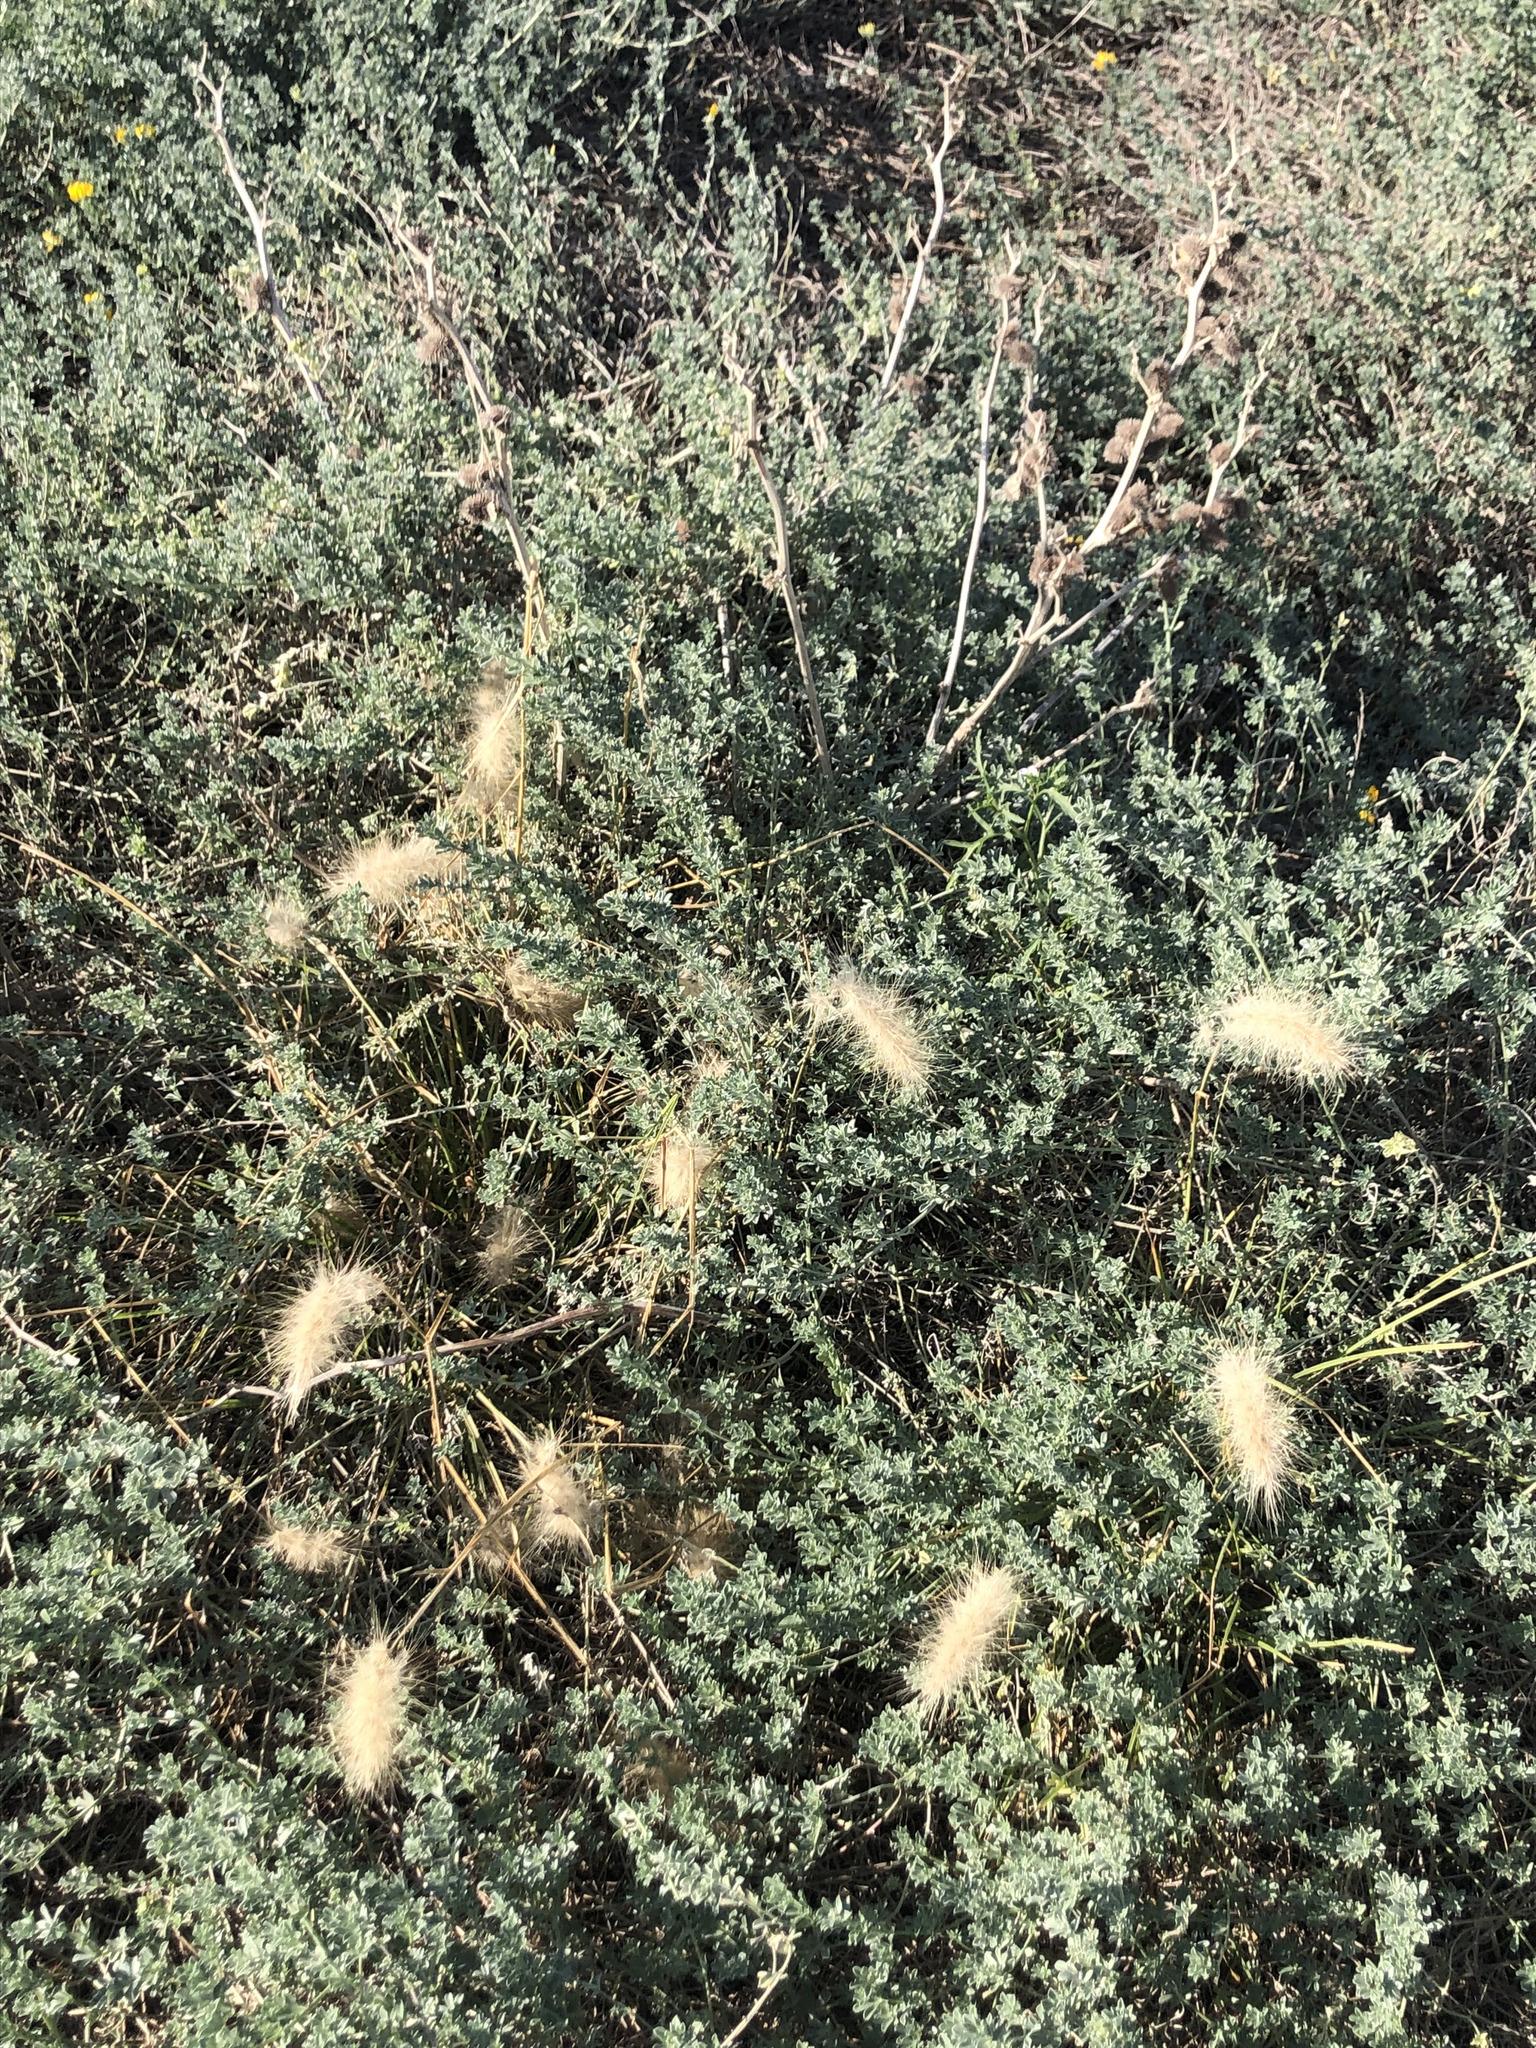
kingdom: Plantae
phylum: Tracheophyta
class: Liliopsida
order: Poales
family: Poaceae
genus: Cenchrus
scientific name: Cenchrus longisetus
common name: Feathertop
